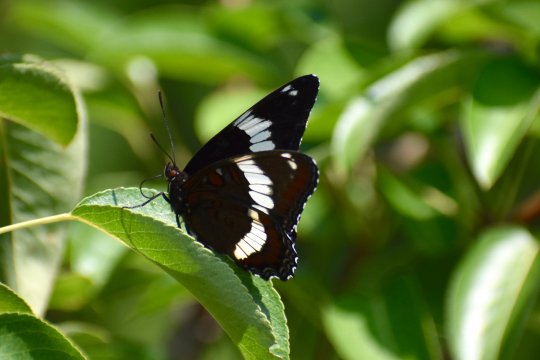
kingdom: Animalia
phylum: Arthropoda
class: Insecta
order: Lepidoptera
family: Nymphalidae
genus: Limenitis
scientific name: Limenitis arthemis
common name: Red-spotted Admiral
